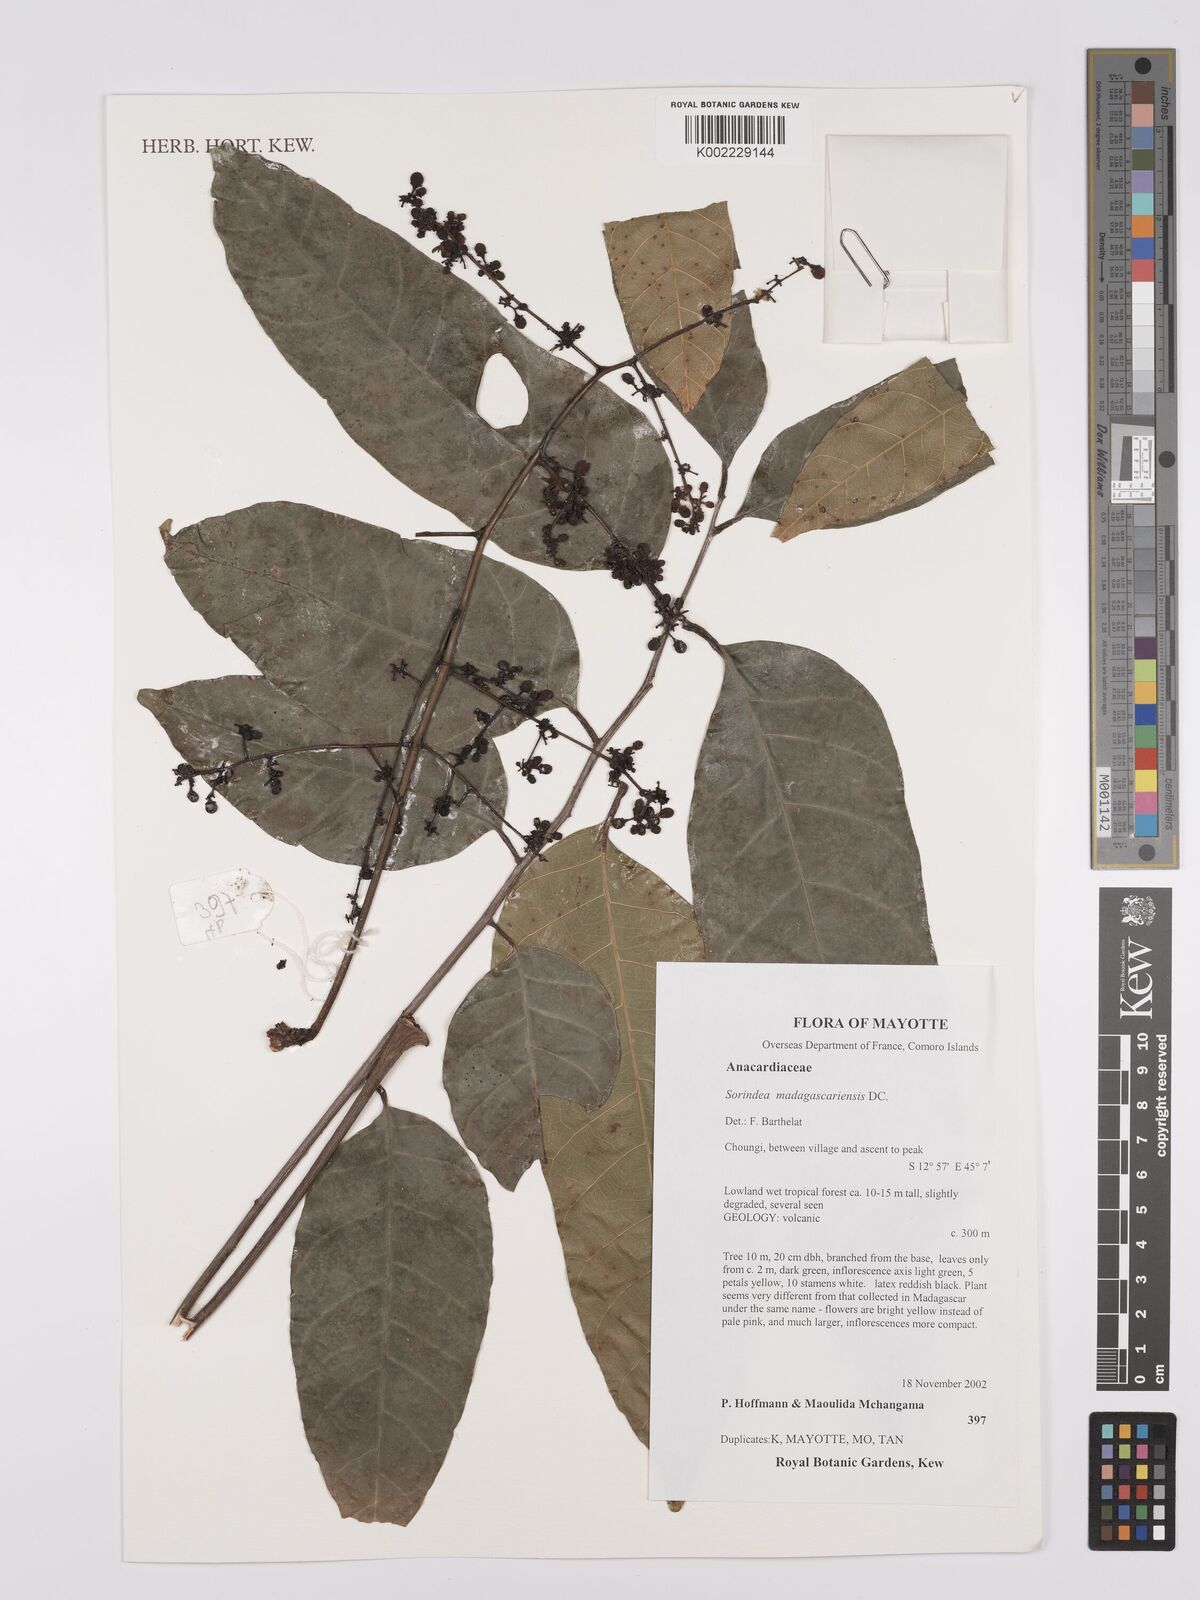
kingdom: Plantae
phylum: Tracheophyta
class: Magnoliopsida
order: Sapindales
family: Anacardiaceae
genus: Sorindeia
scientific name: Sorindeia madagascariensis
